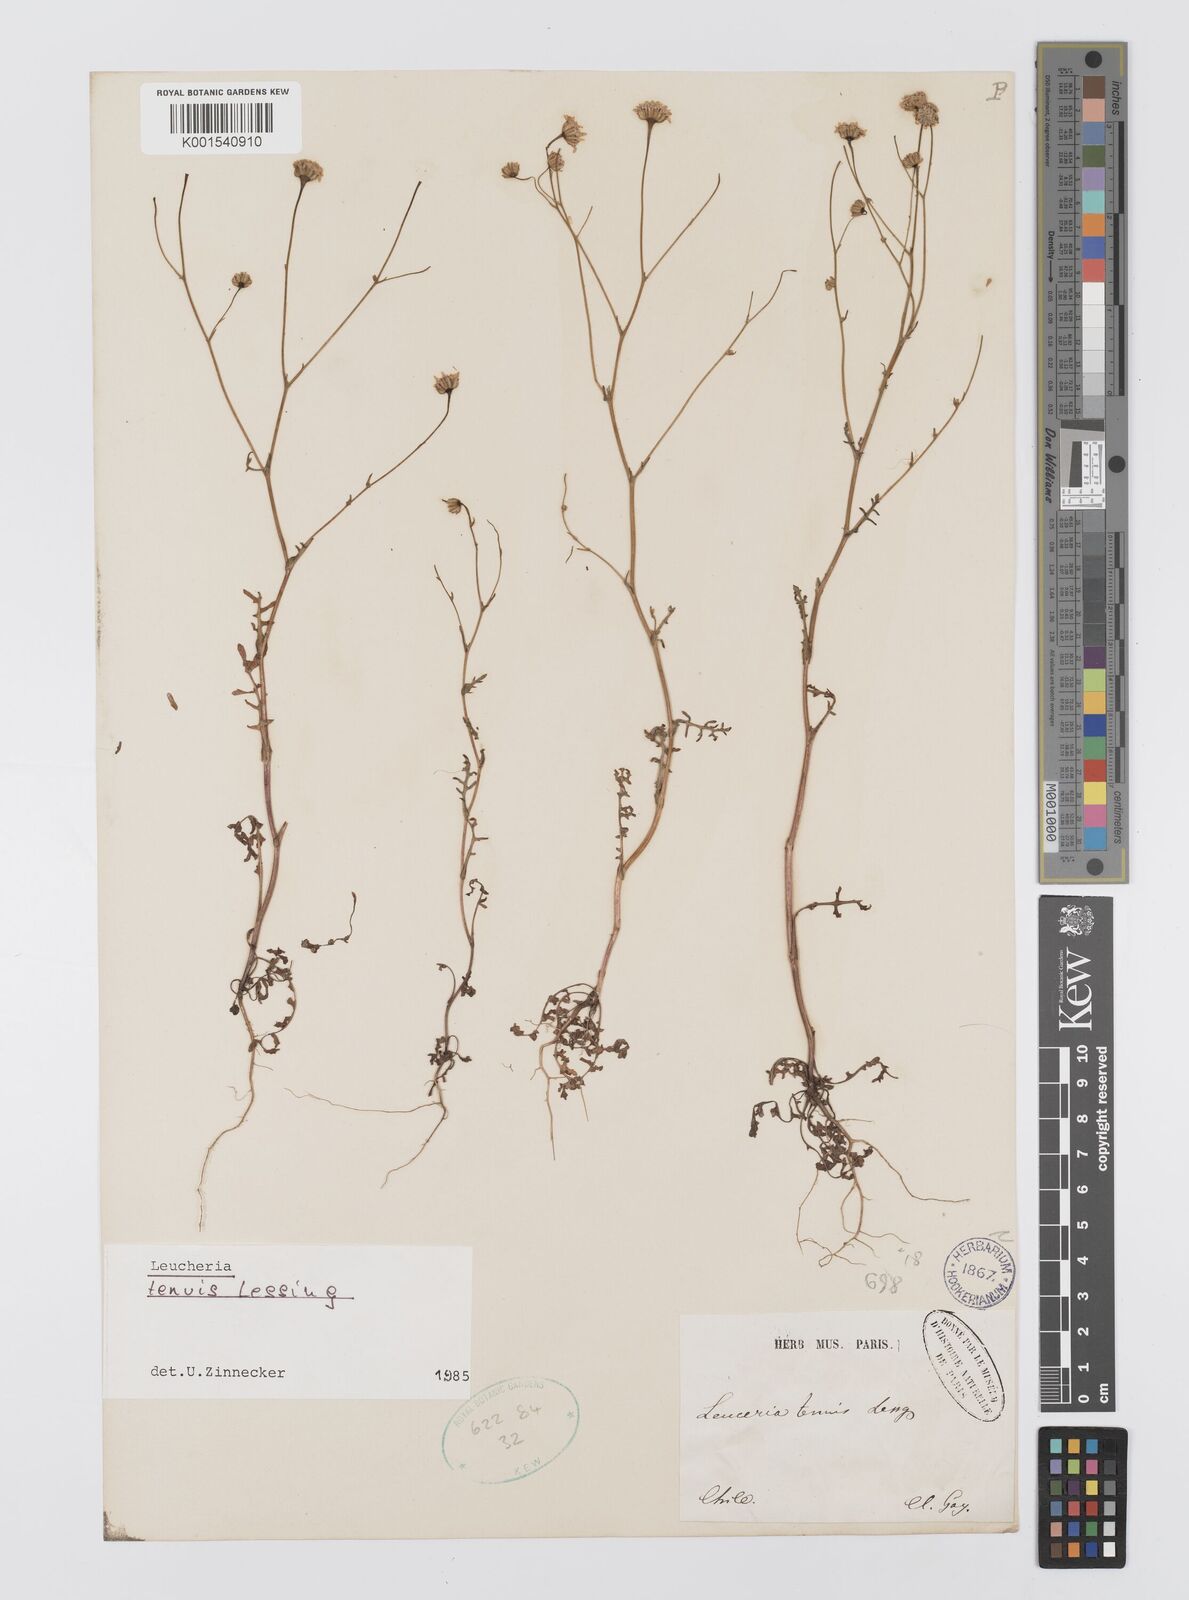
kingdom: Plantae
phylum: Tracheophyta
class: Magnoliopsida
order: Asterales
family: Asteraceae
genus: Leucheria
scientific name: Leucheria tenuis
